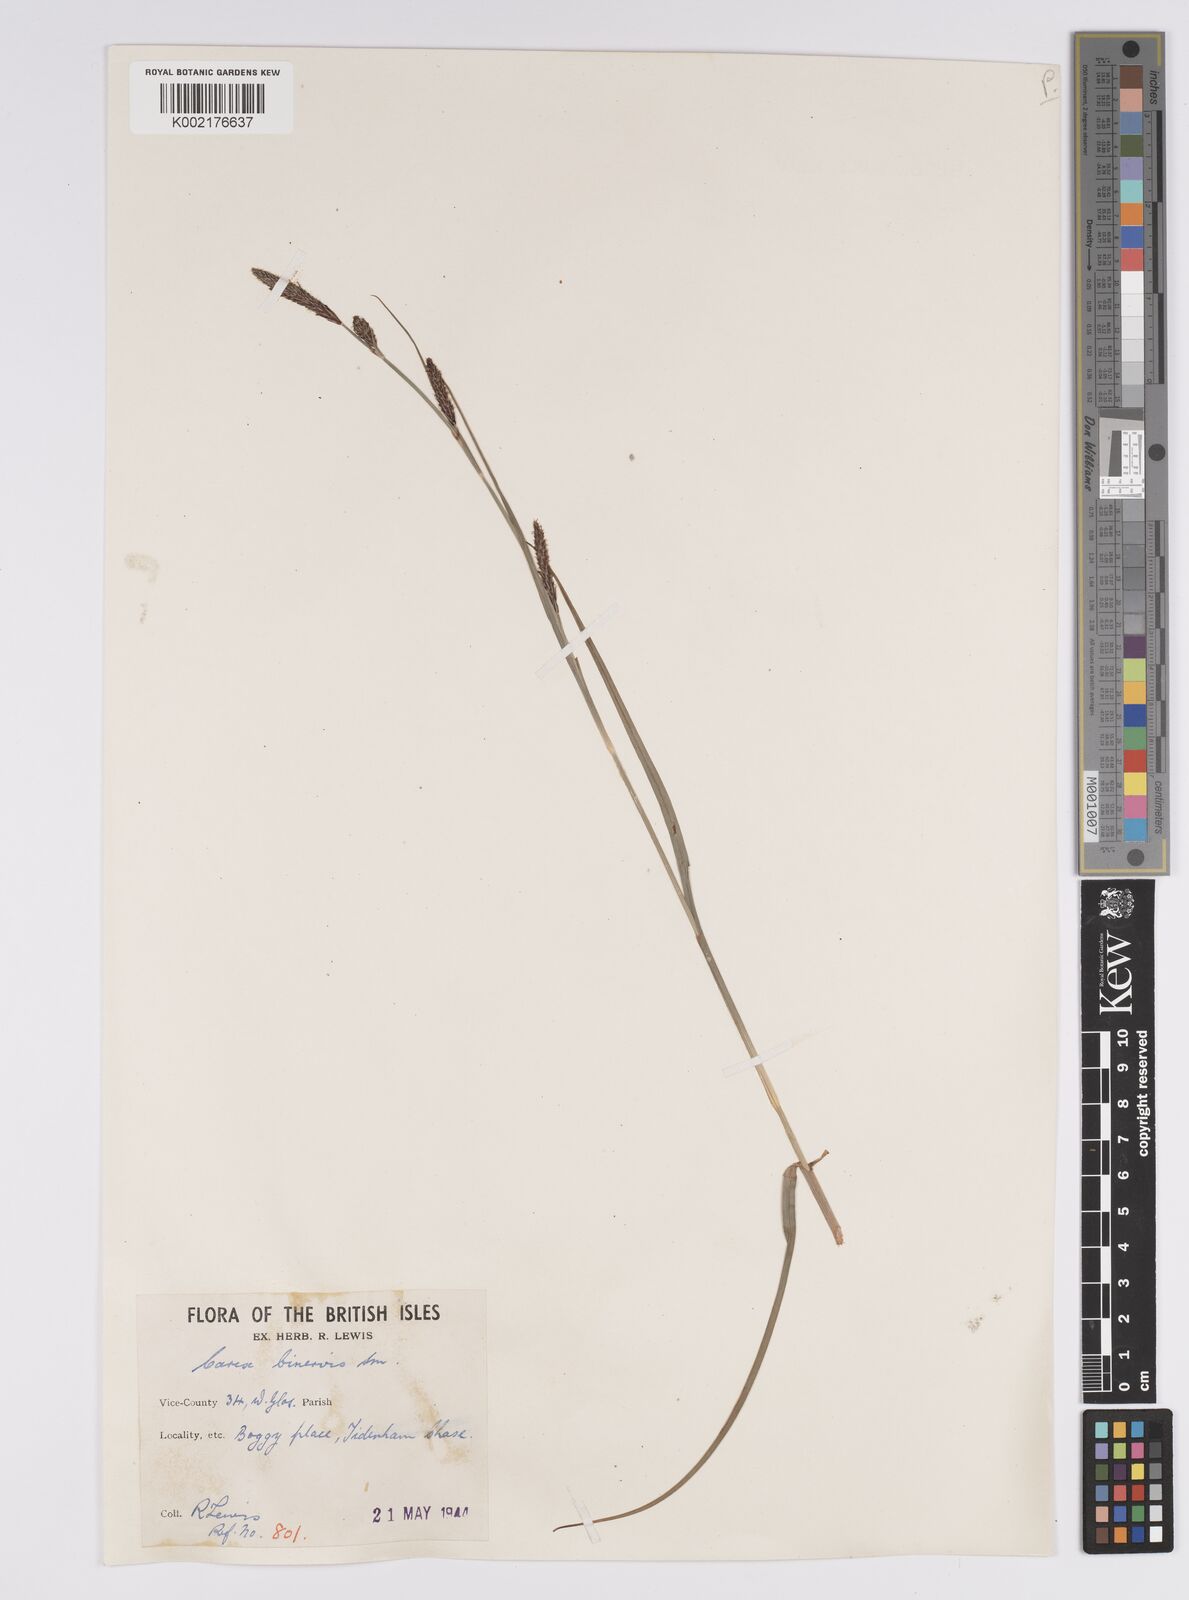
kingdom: Plantae
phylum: Tracheophyta
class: Liliopsida
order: Poales
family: Cyperaceae
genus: Carex
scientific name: Carex binervis
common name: Green-ribbed sedge
